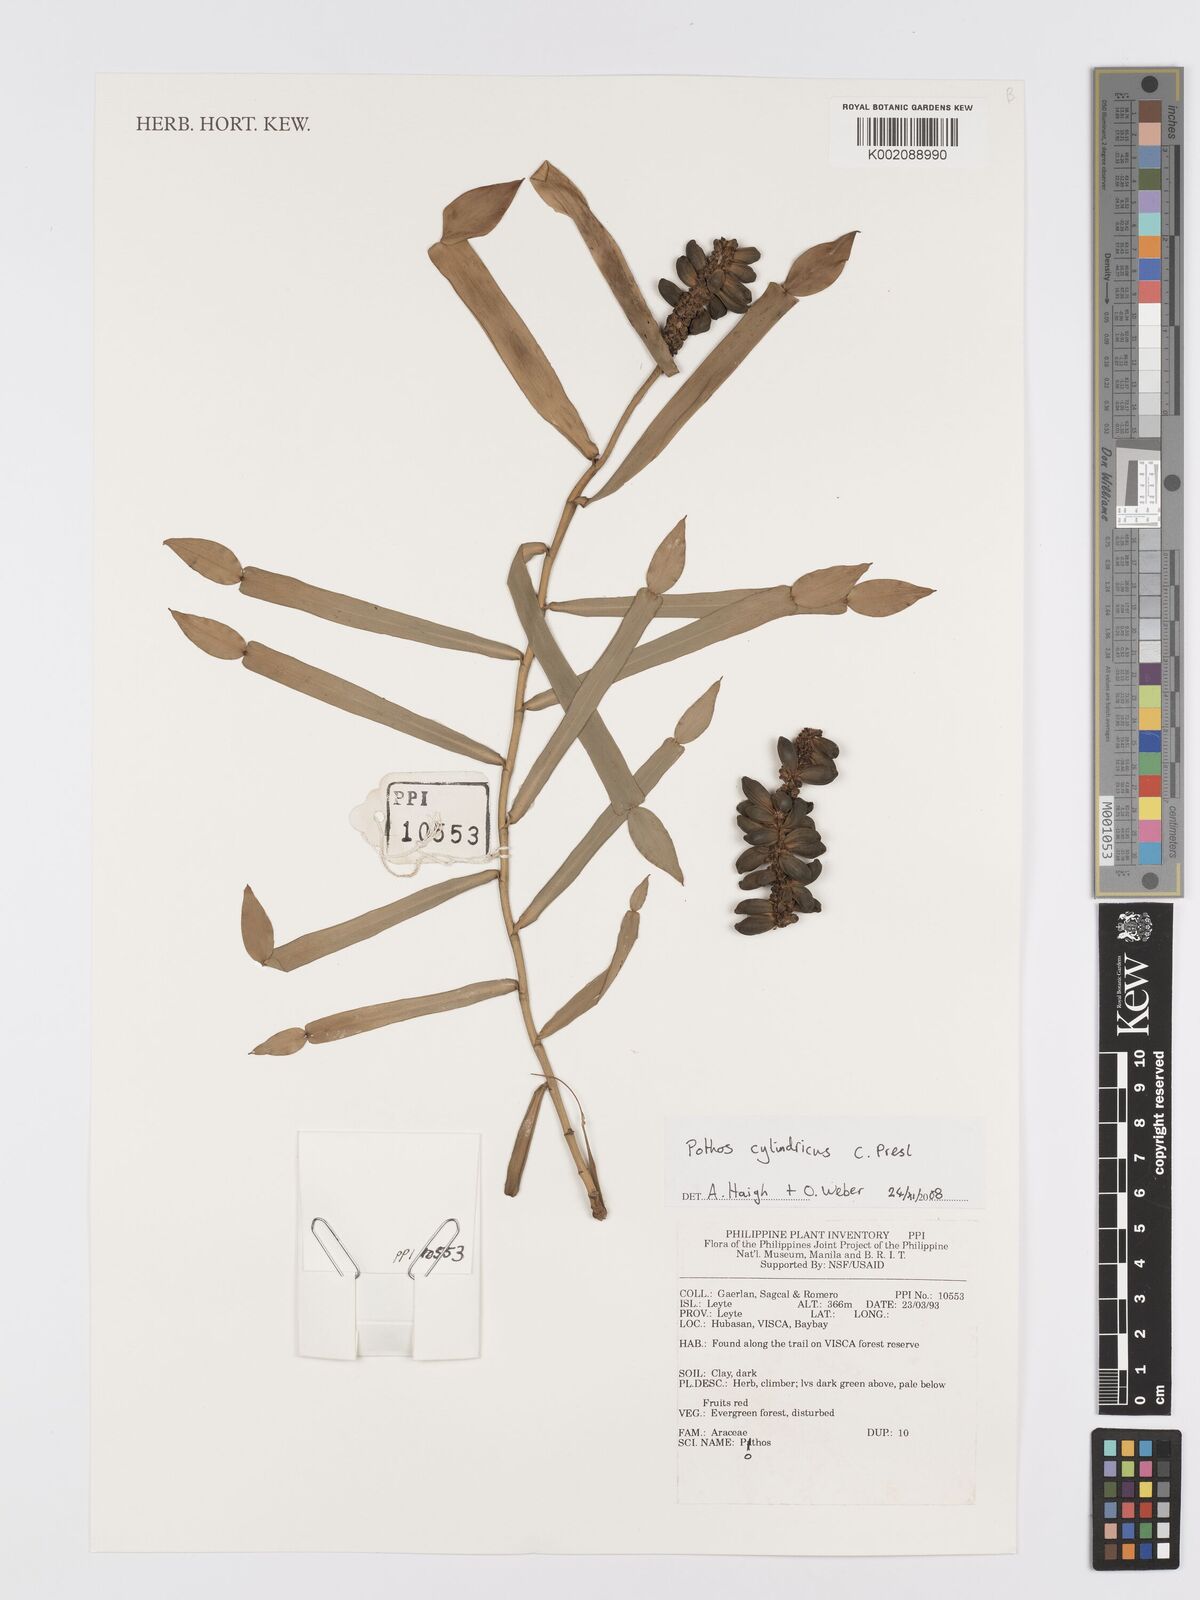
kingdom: Plantae
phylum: Tracheophyta
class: Liliopsida
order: Alismatales
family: Araceae
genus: Pothos
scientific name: Pothos cylindricus
